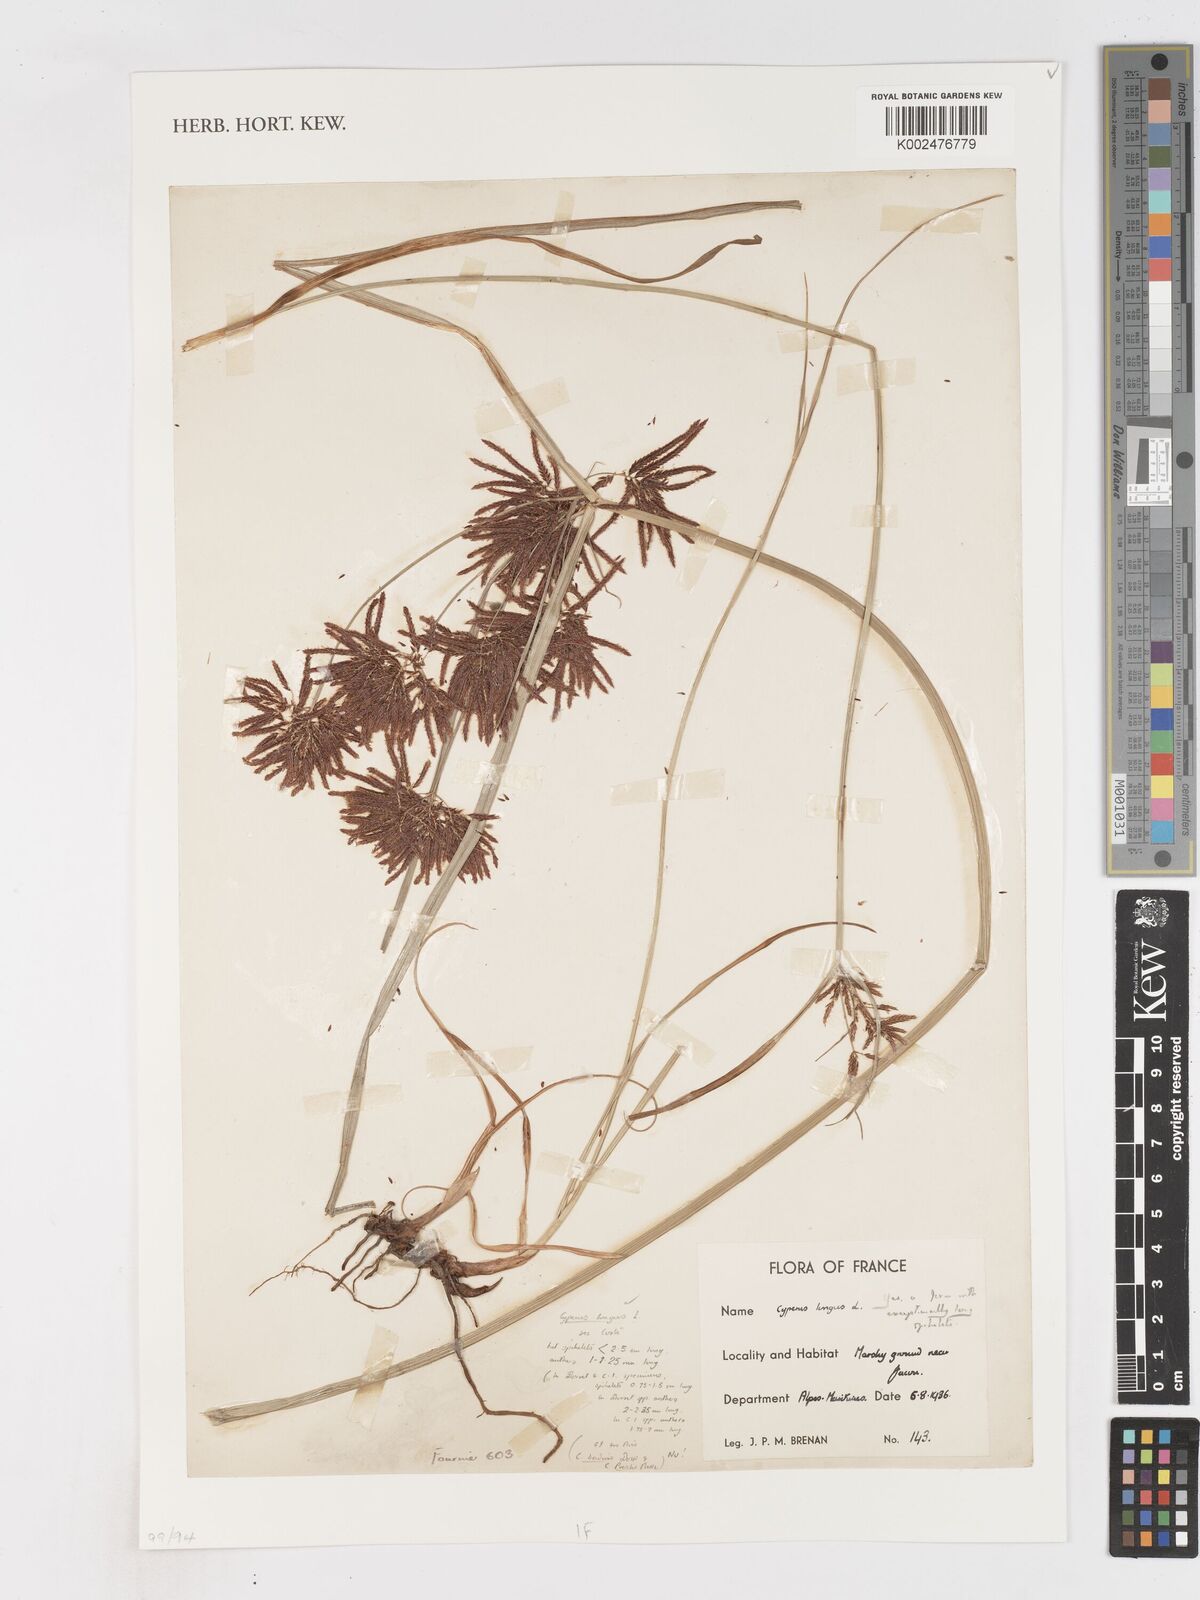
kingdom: Plantae
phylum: Tracheophyta
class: Liliopsida
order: Poales
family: Cyperaceae
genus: Cyperus
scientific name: Cyperus longus
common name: Galingale
